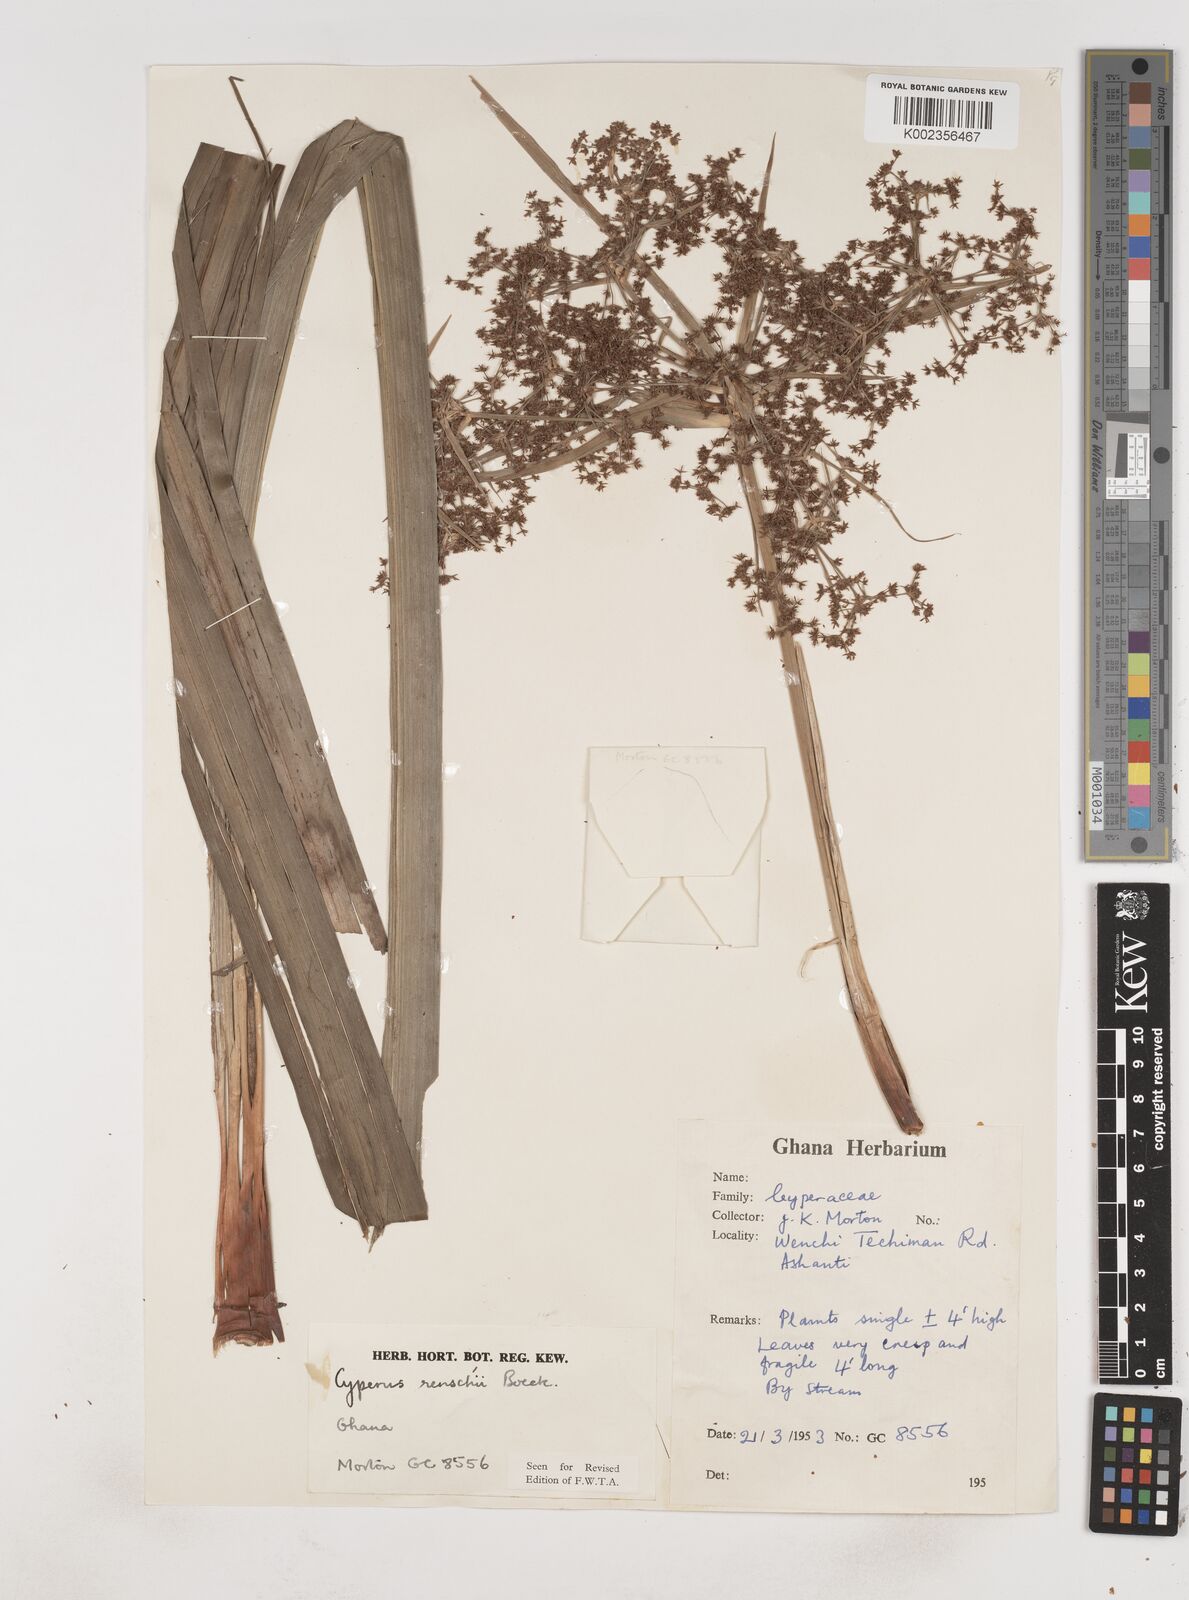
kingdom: Plantae
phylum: Tracheophyta
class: Liliopsida
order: Poales
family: Cyperaceae
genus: Cyperus
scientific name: Cyperus renschii
